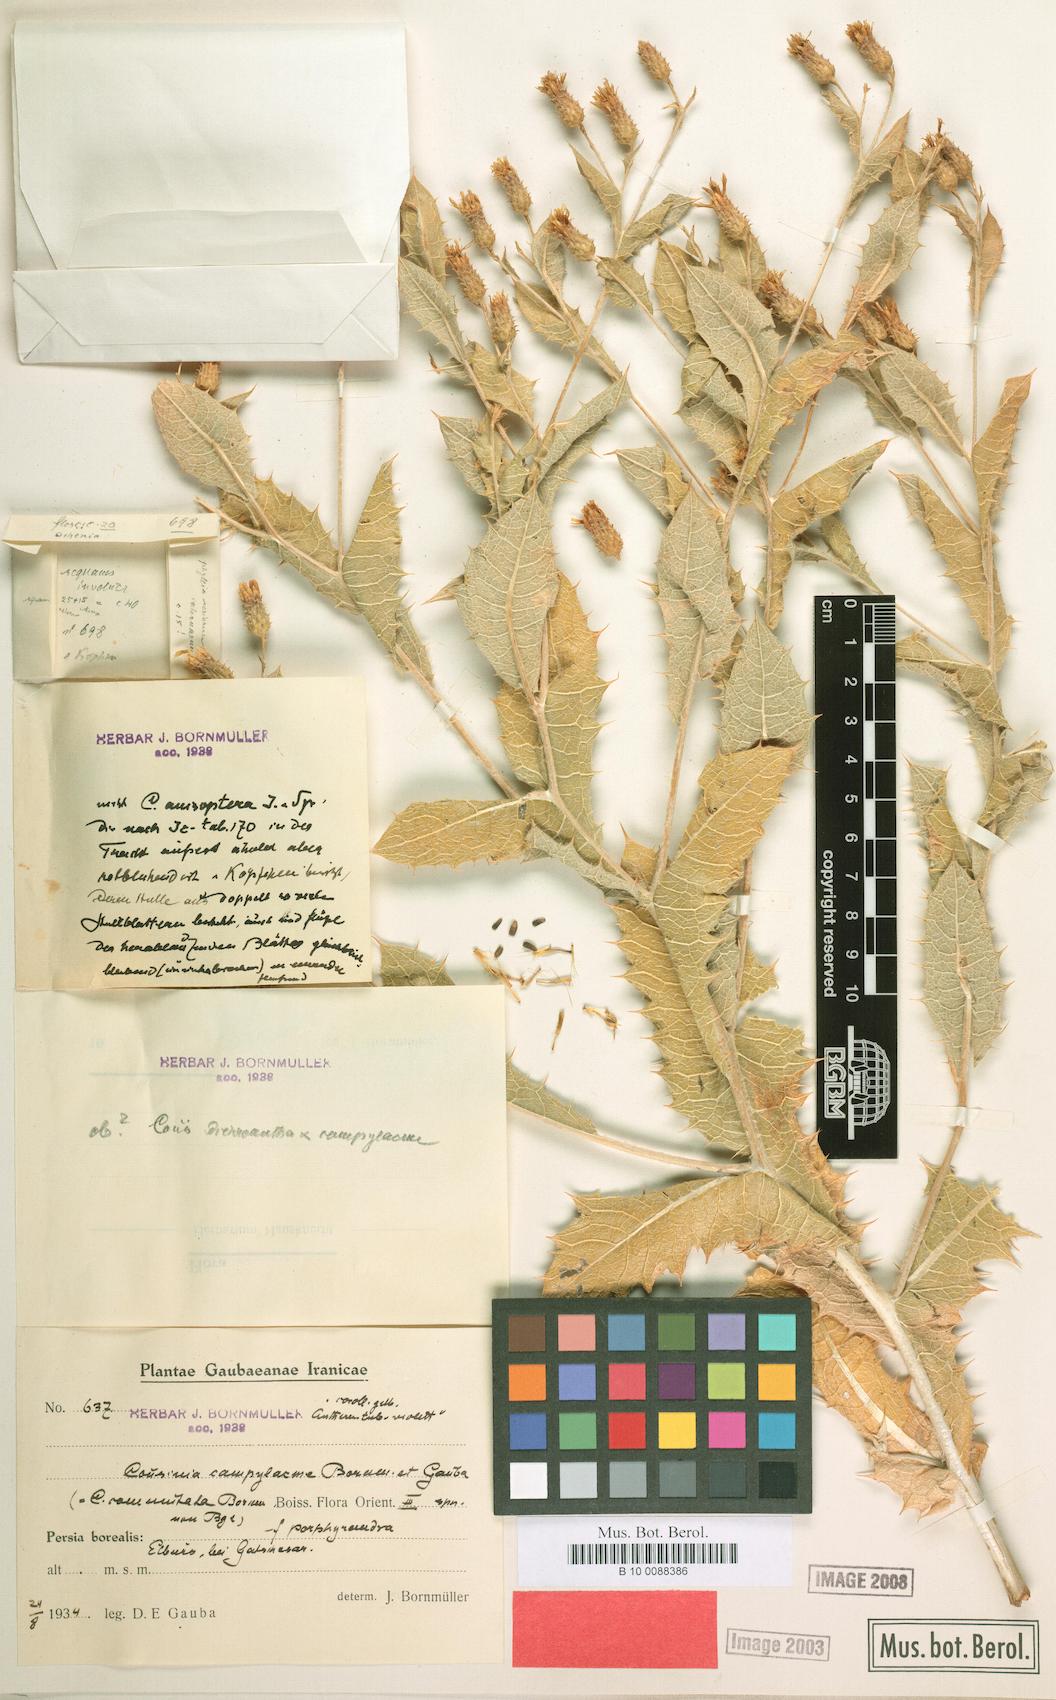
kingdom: Plantae
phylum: Tracheophyta
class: Magnoliopsida
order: Asterales
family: Asteraceae
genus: Cousinia
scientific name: Cousinia commutata
